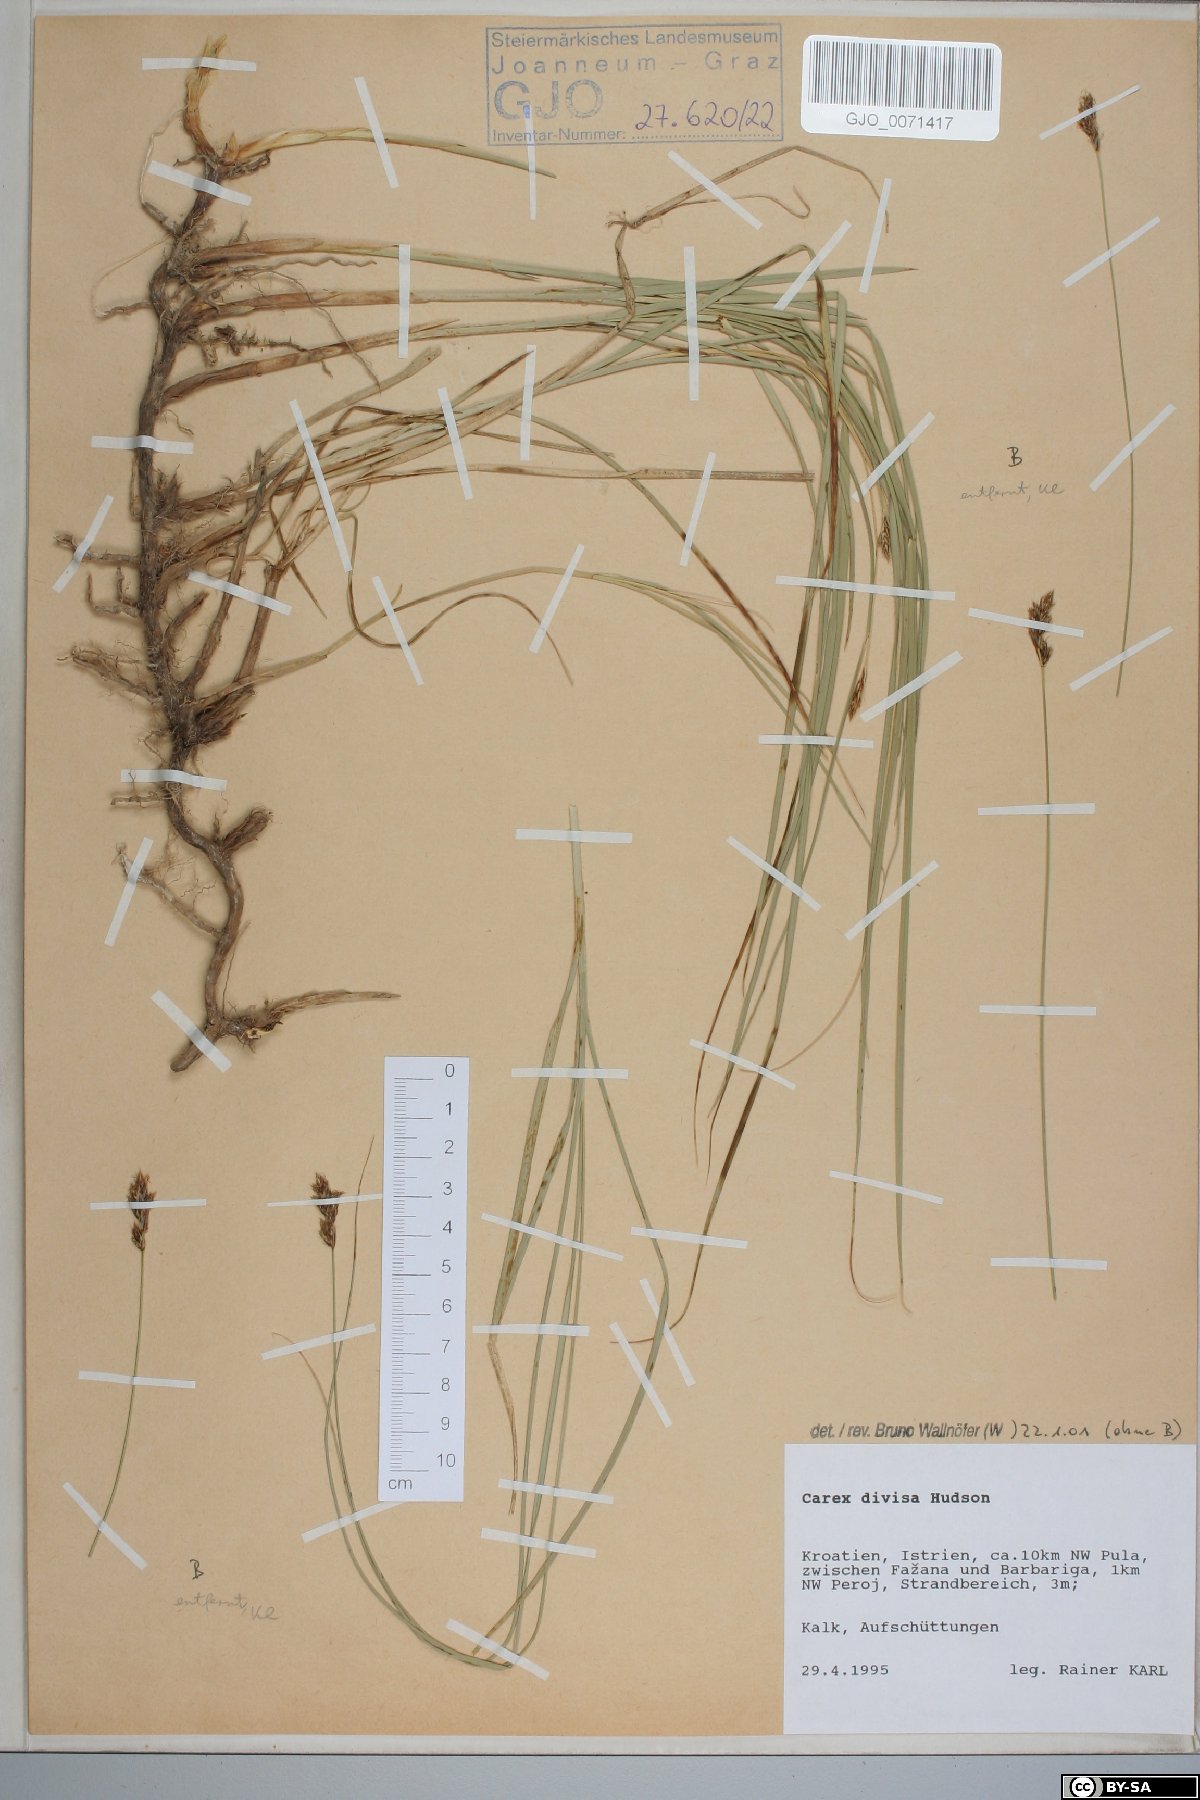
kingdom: Plantae
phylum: Tracheophyta
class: Liliopsida
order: Poales
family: Cyperaceae
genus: Carex
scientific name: Carex divisa
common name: Divided sedge
